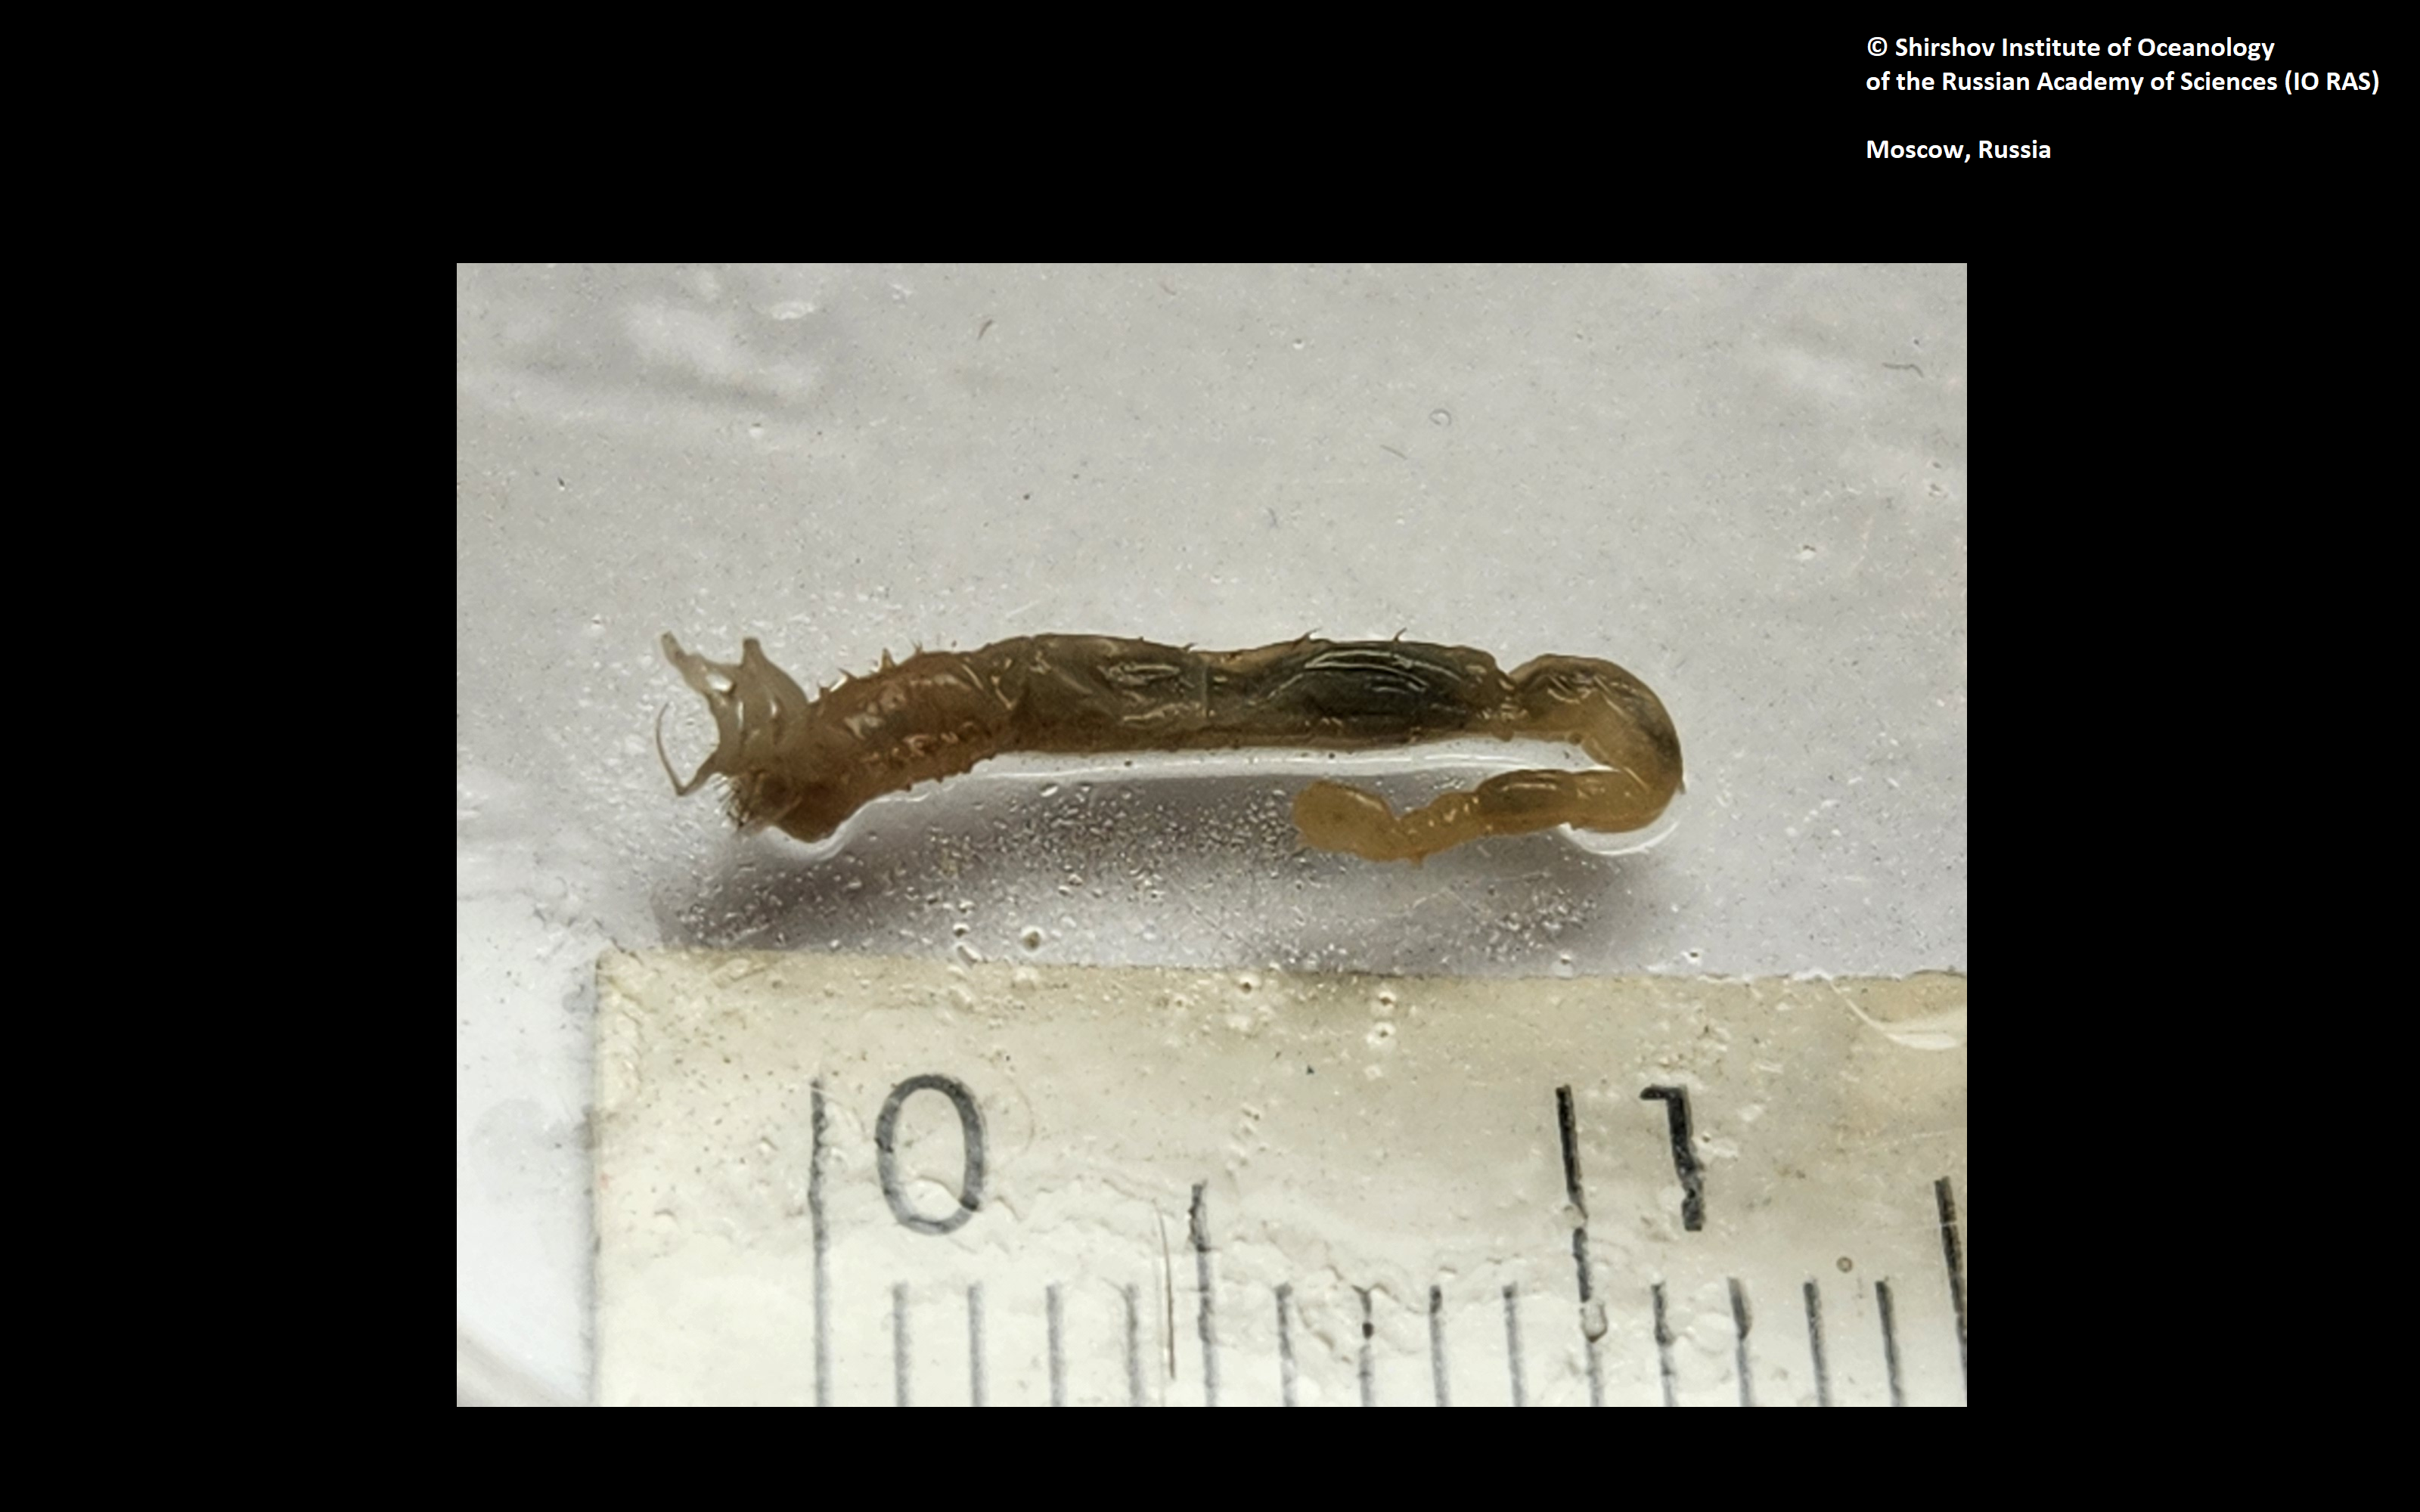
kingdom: Animalia
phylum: Annelida
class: Polychaeta
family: Ampharetidae
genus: Anobothrus
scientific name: Anobothrus paleatus
